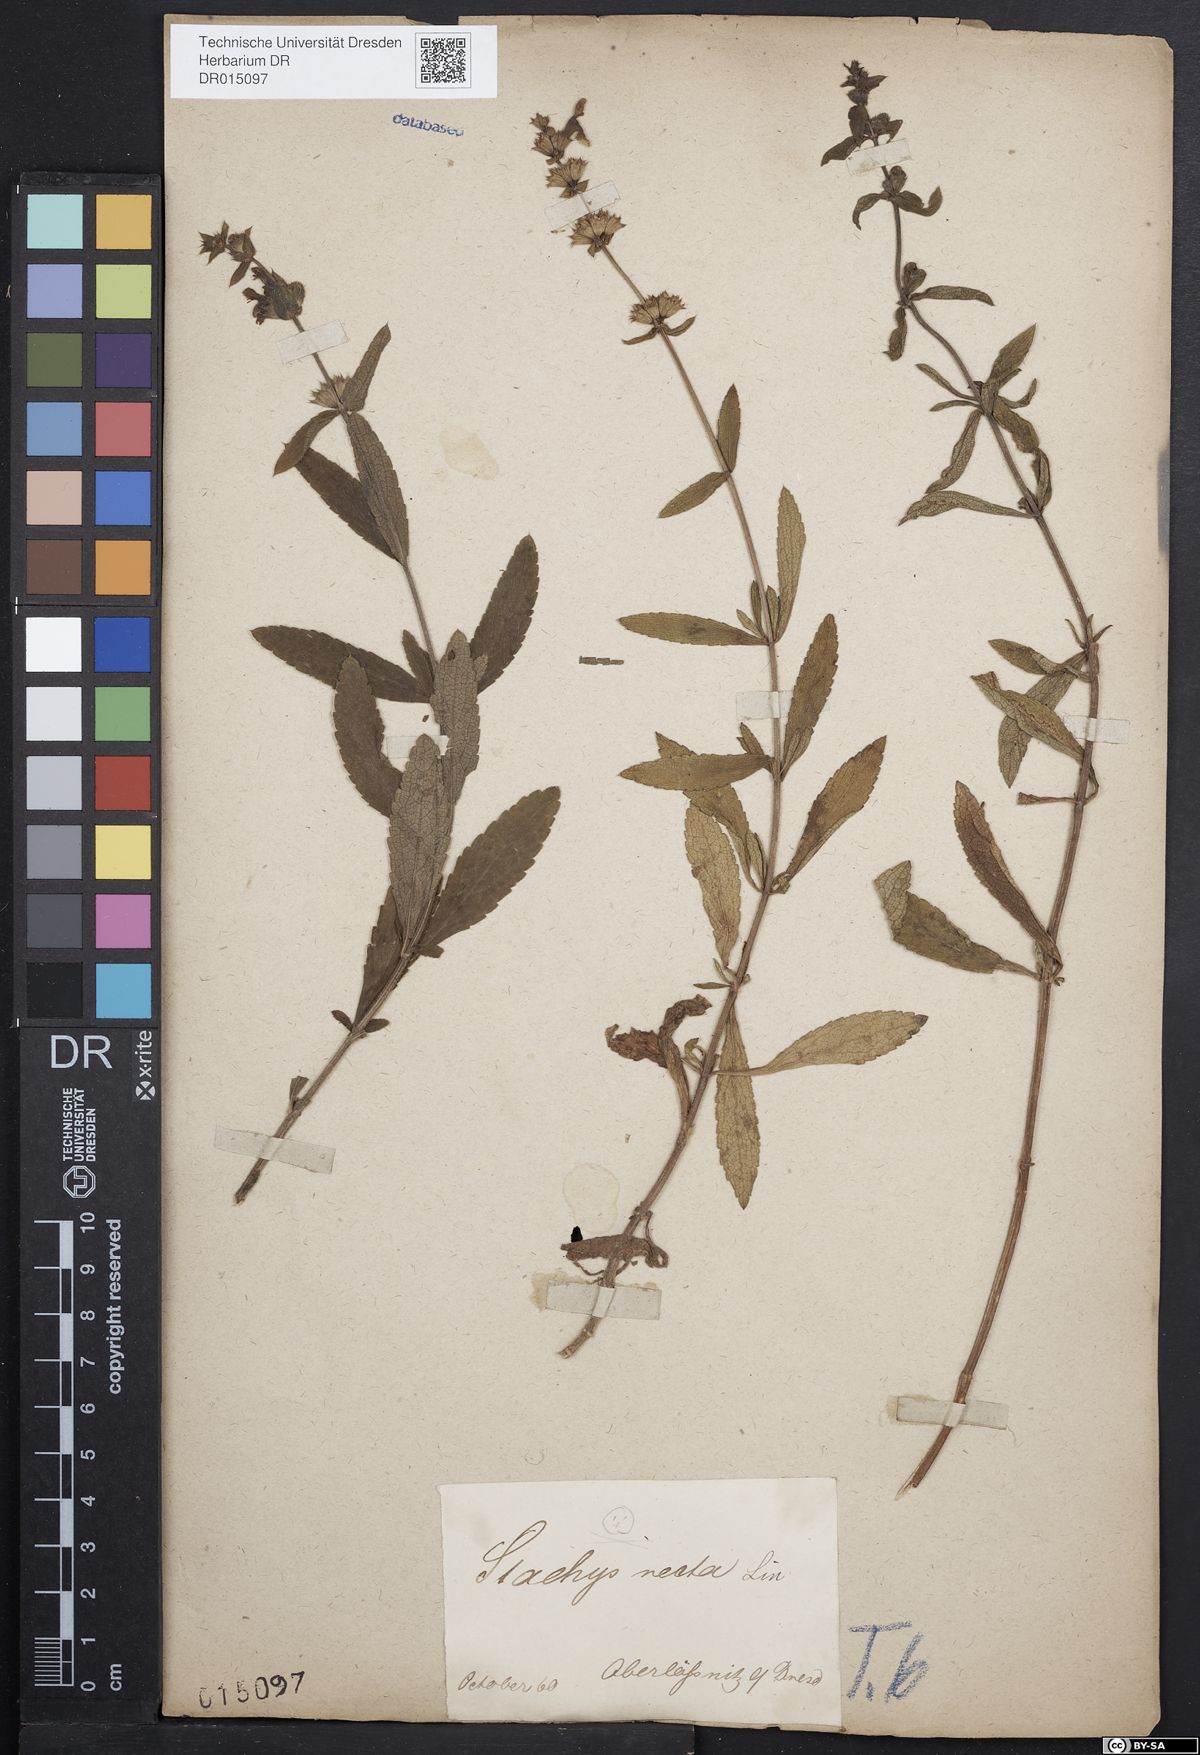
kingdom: Plantae
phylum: Tracheophyta
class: Magnoliopsida
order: Lamiales
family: Lamiaceae
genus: Stachys
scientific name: Stachys recta
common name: Perennial yellow-woundwort
